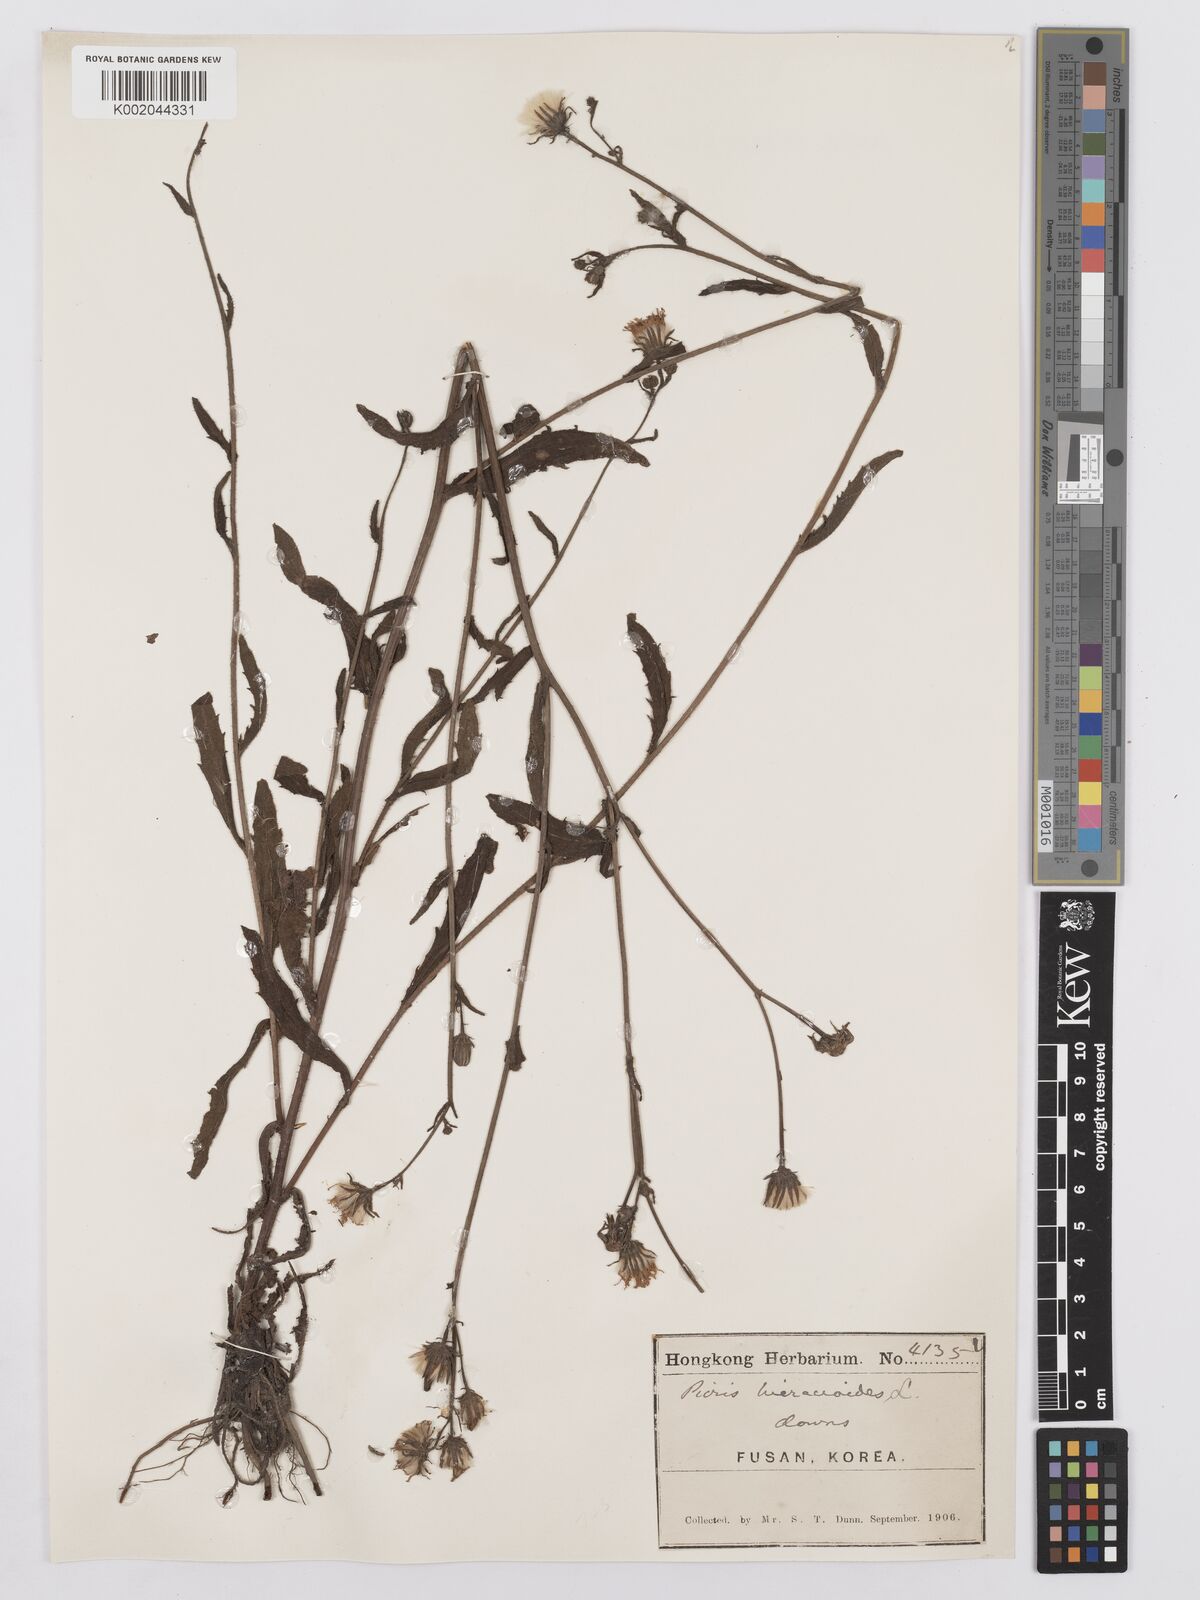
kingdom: Plantae
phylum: Tracheophyta
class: Magnoliopsida
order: Asterales
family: Asteraceae
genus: Picris
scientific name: Picris hieracioides
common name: Hawkweed oxtongue
